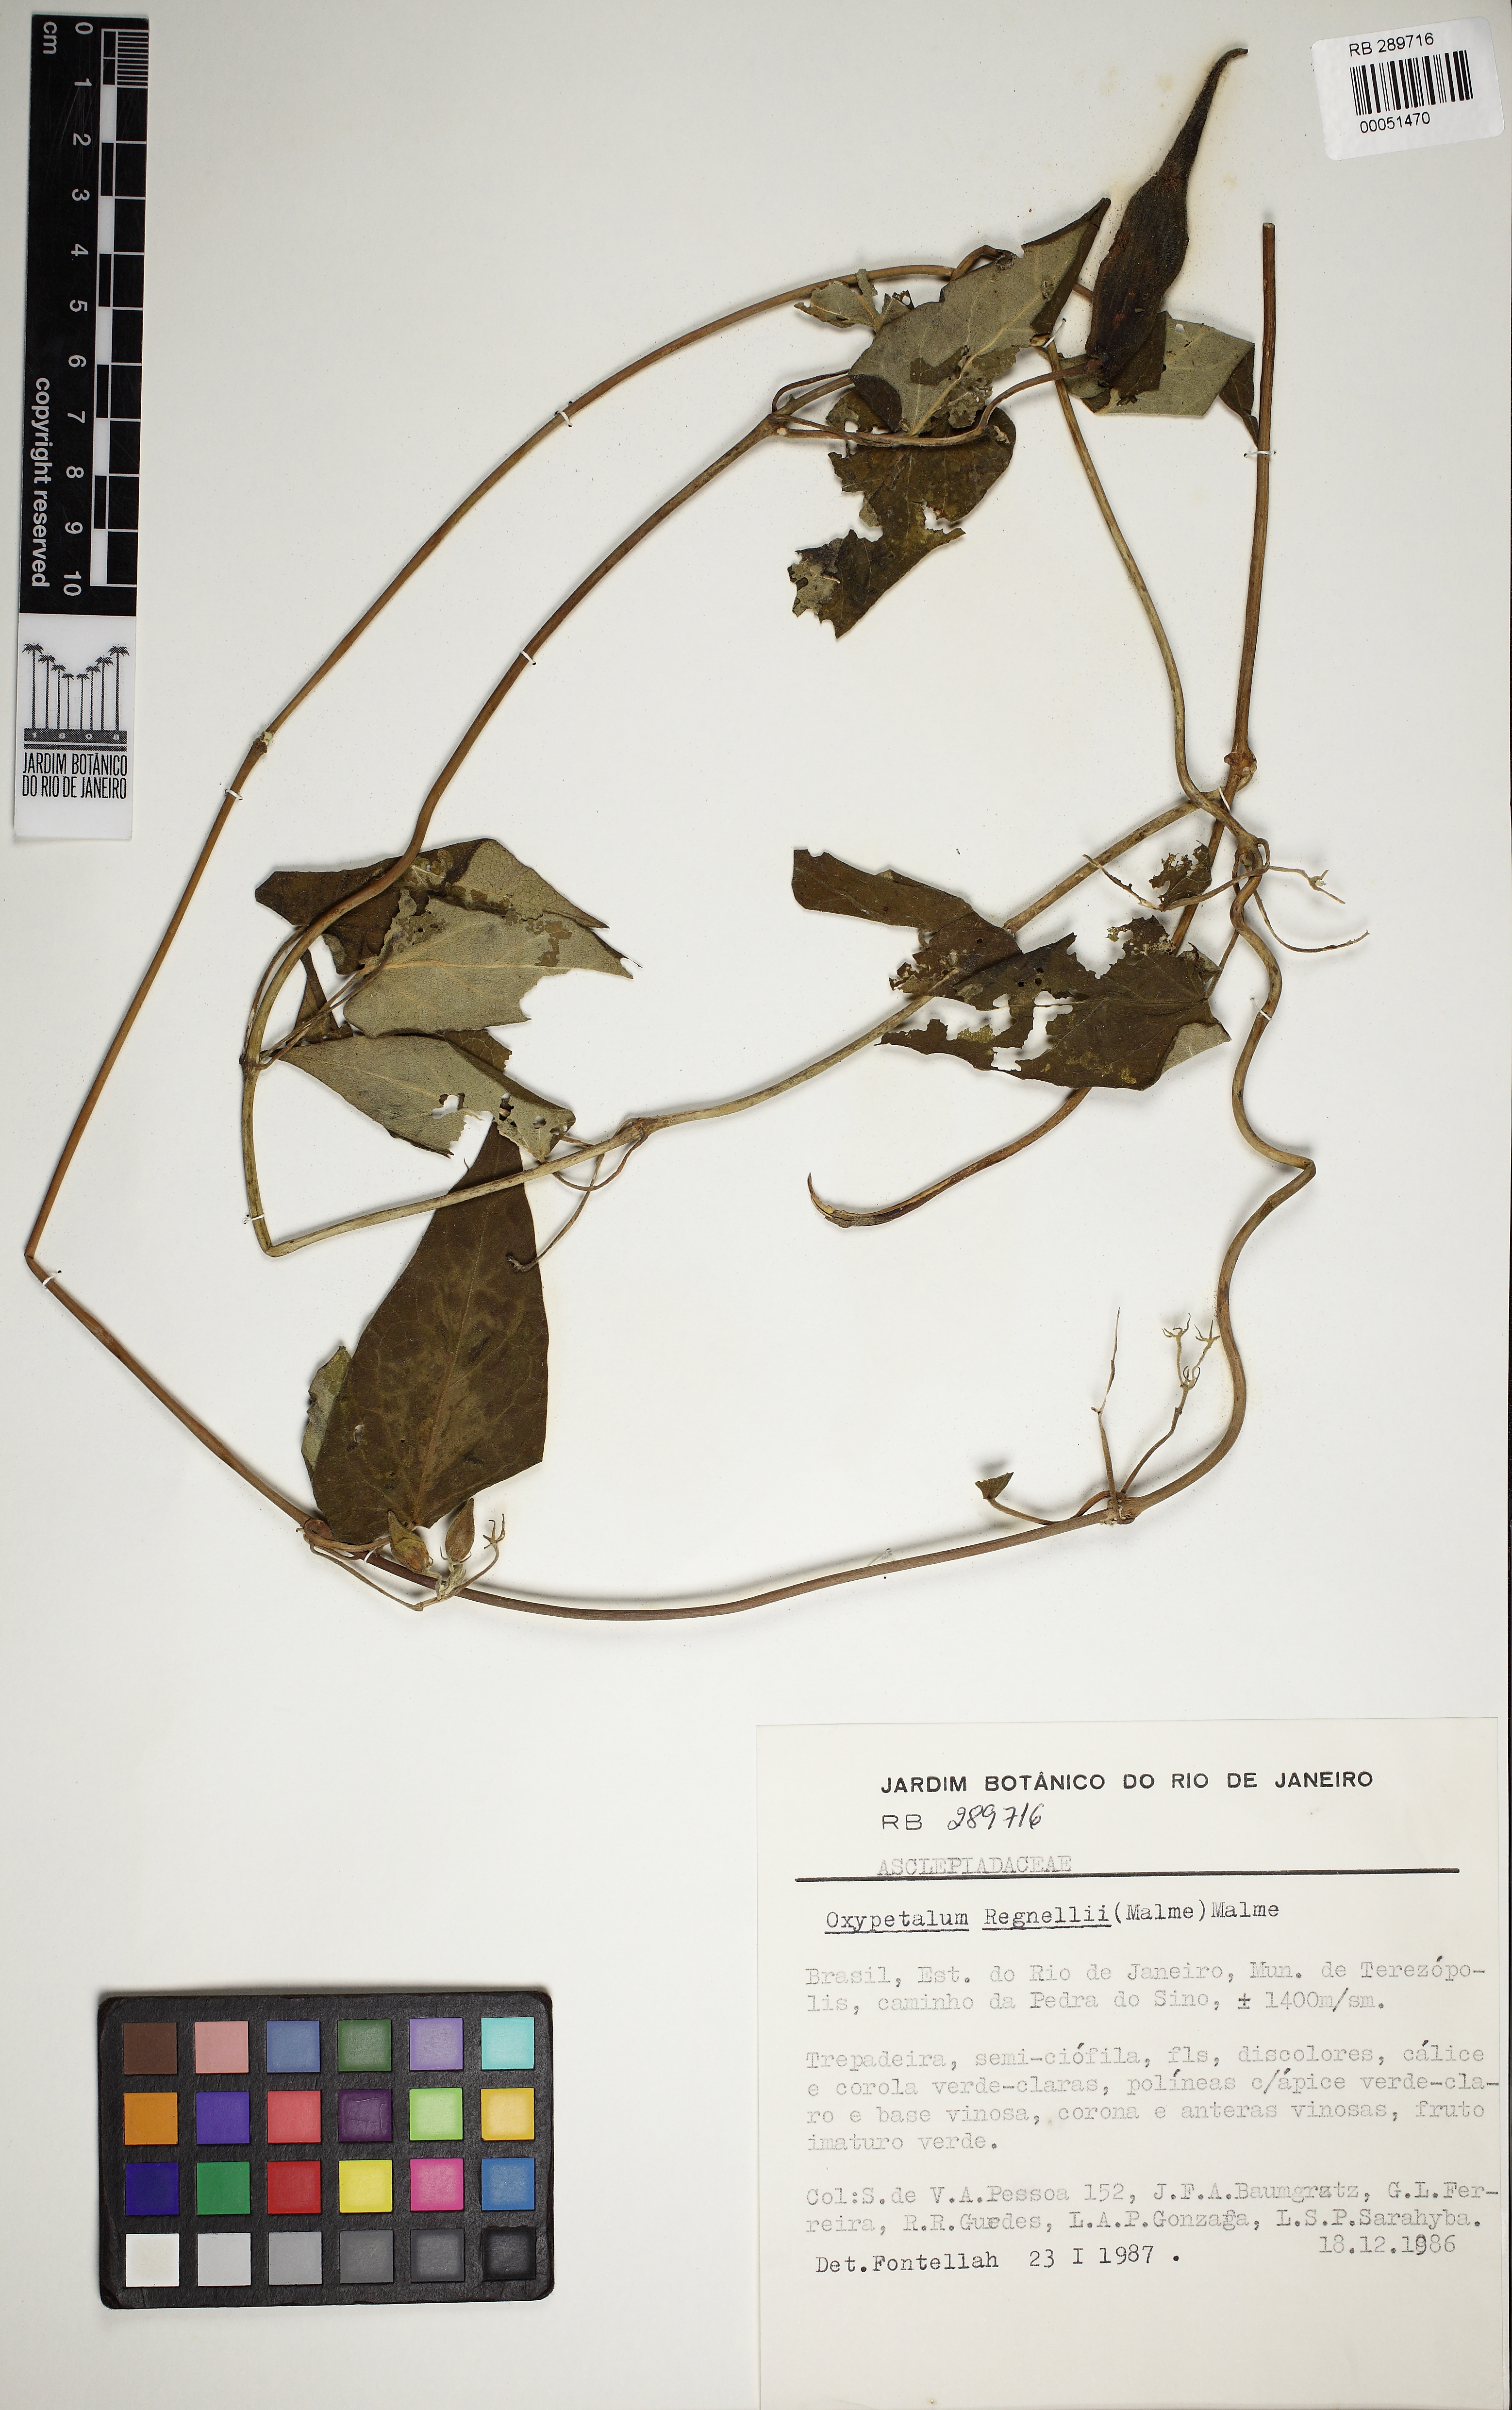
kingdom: Plantae
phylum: Tracheophyta
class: Magnoliopsida
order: Gentianales
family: Apocynaceae
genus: Oxypetalum
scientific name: Oxypetalum regnellii
